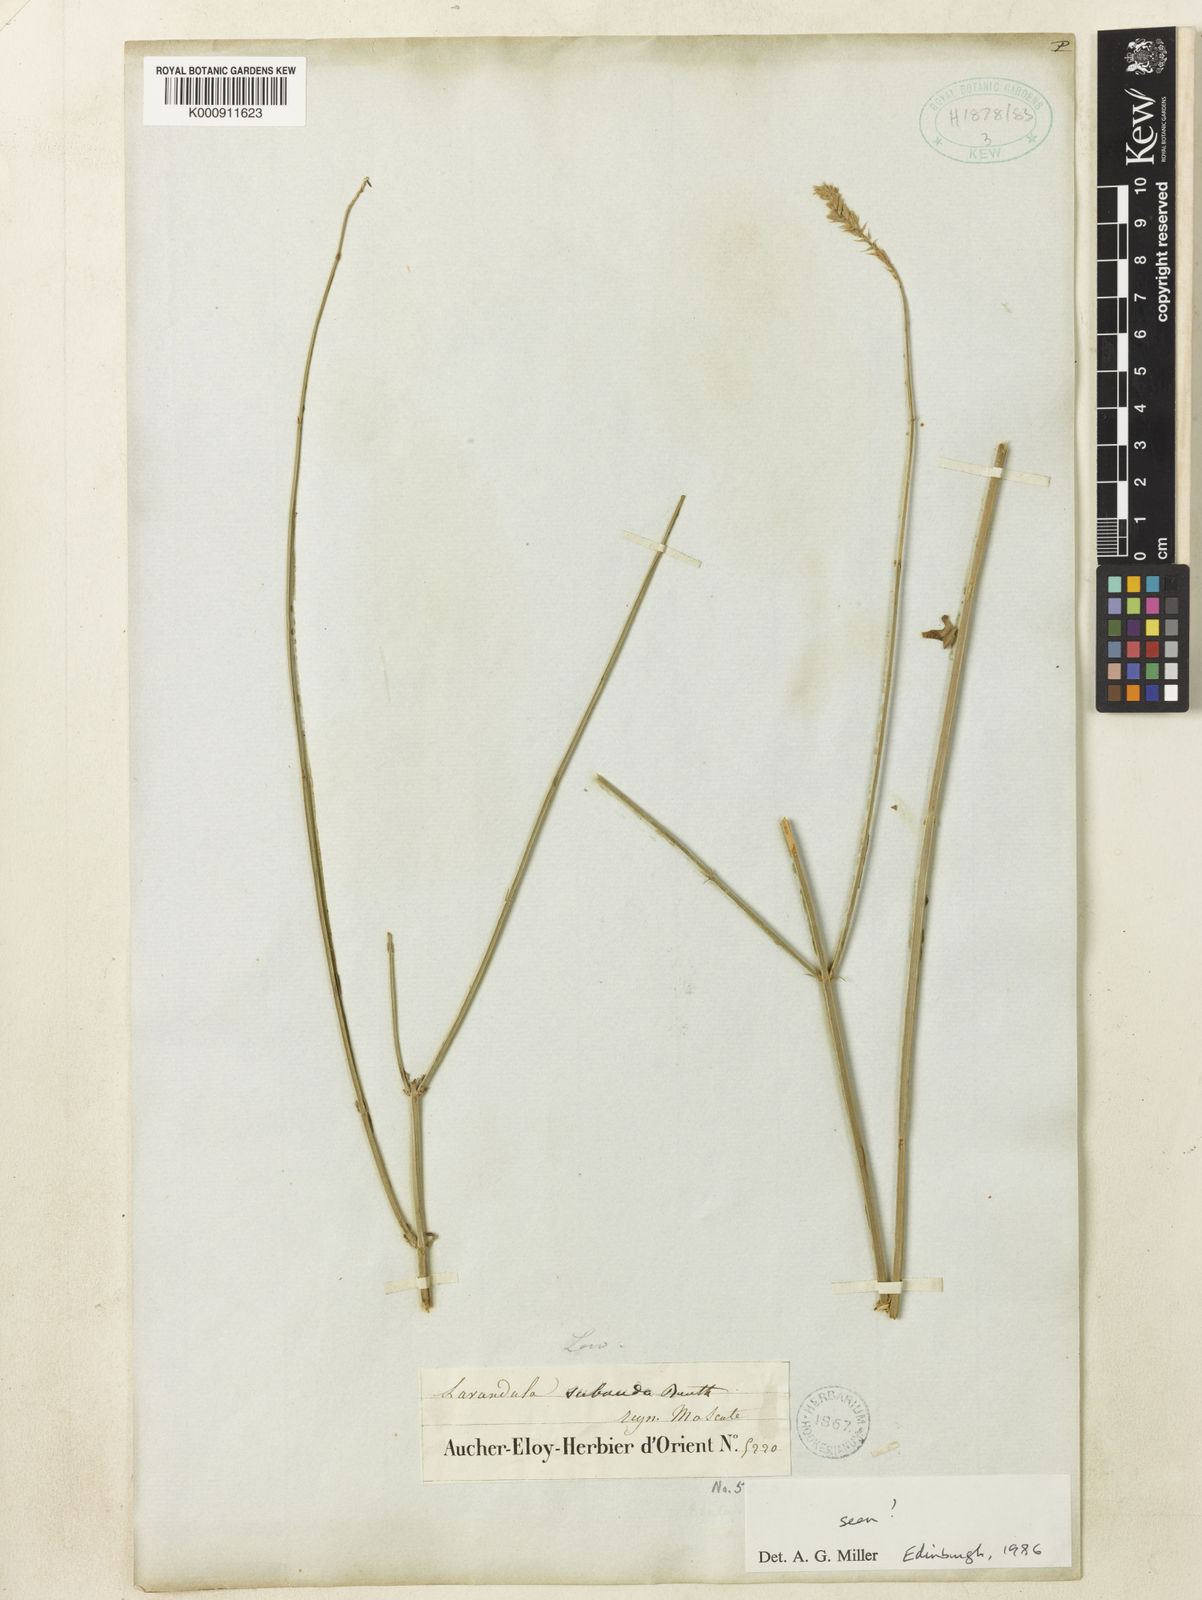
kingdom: Plantae
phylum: Tracheophyta
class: Magnoliopsida
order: Lamiales
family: Lamiaceae
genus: Lavandula
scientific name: Lavandula subnuda
